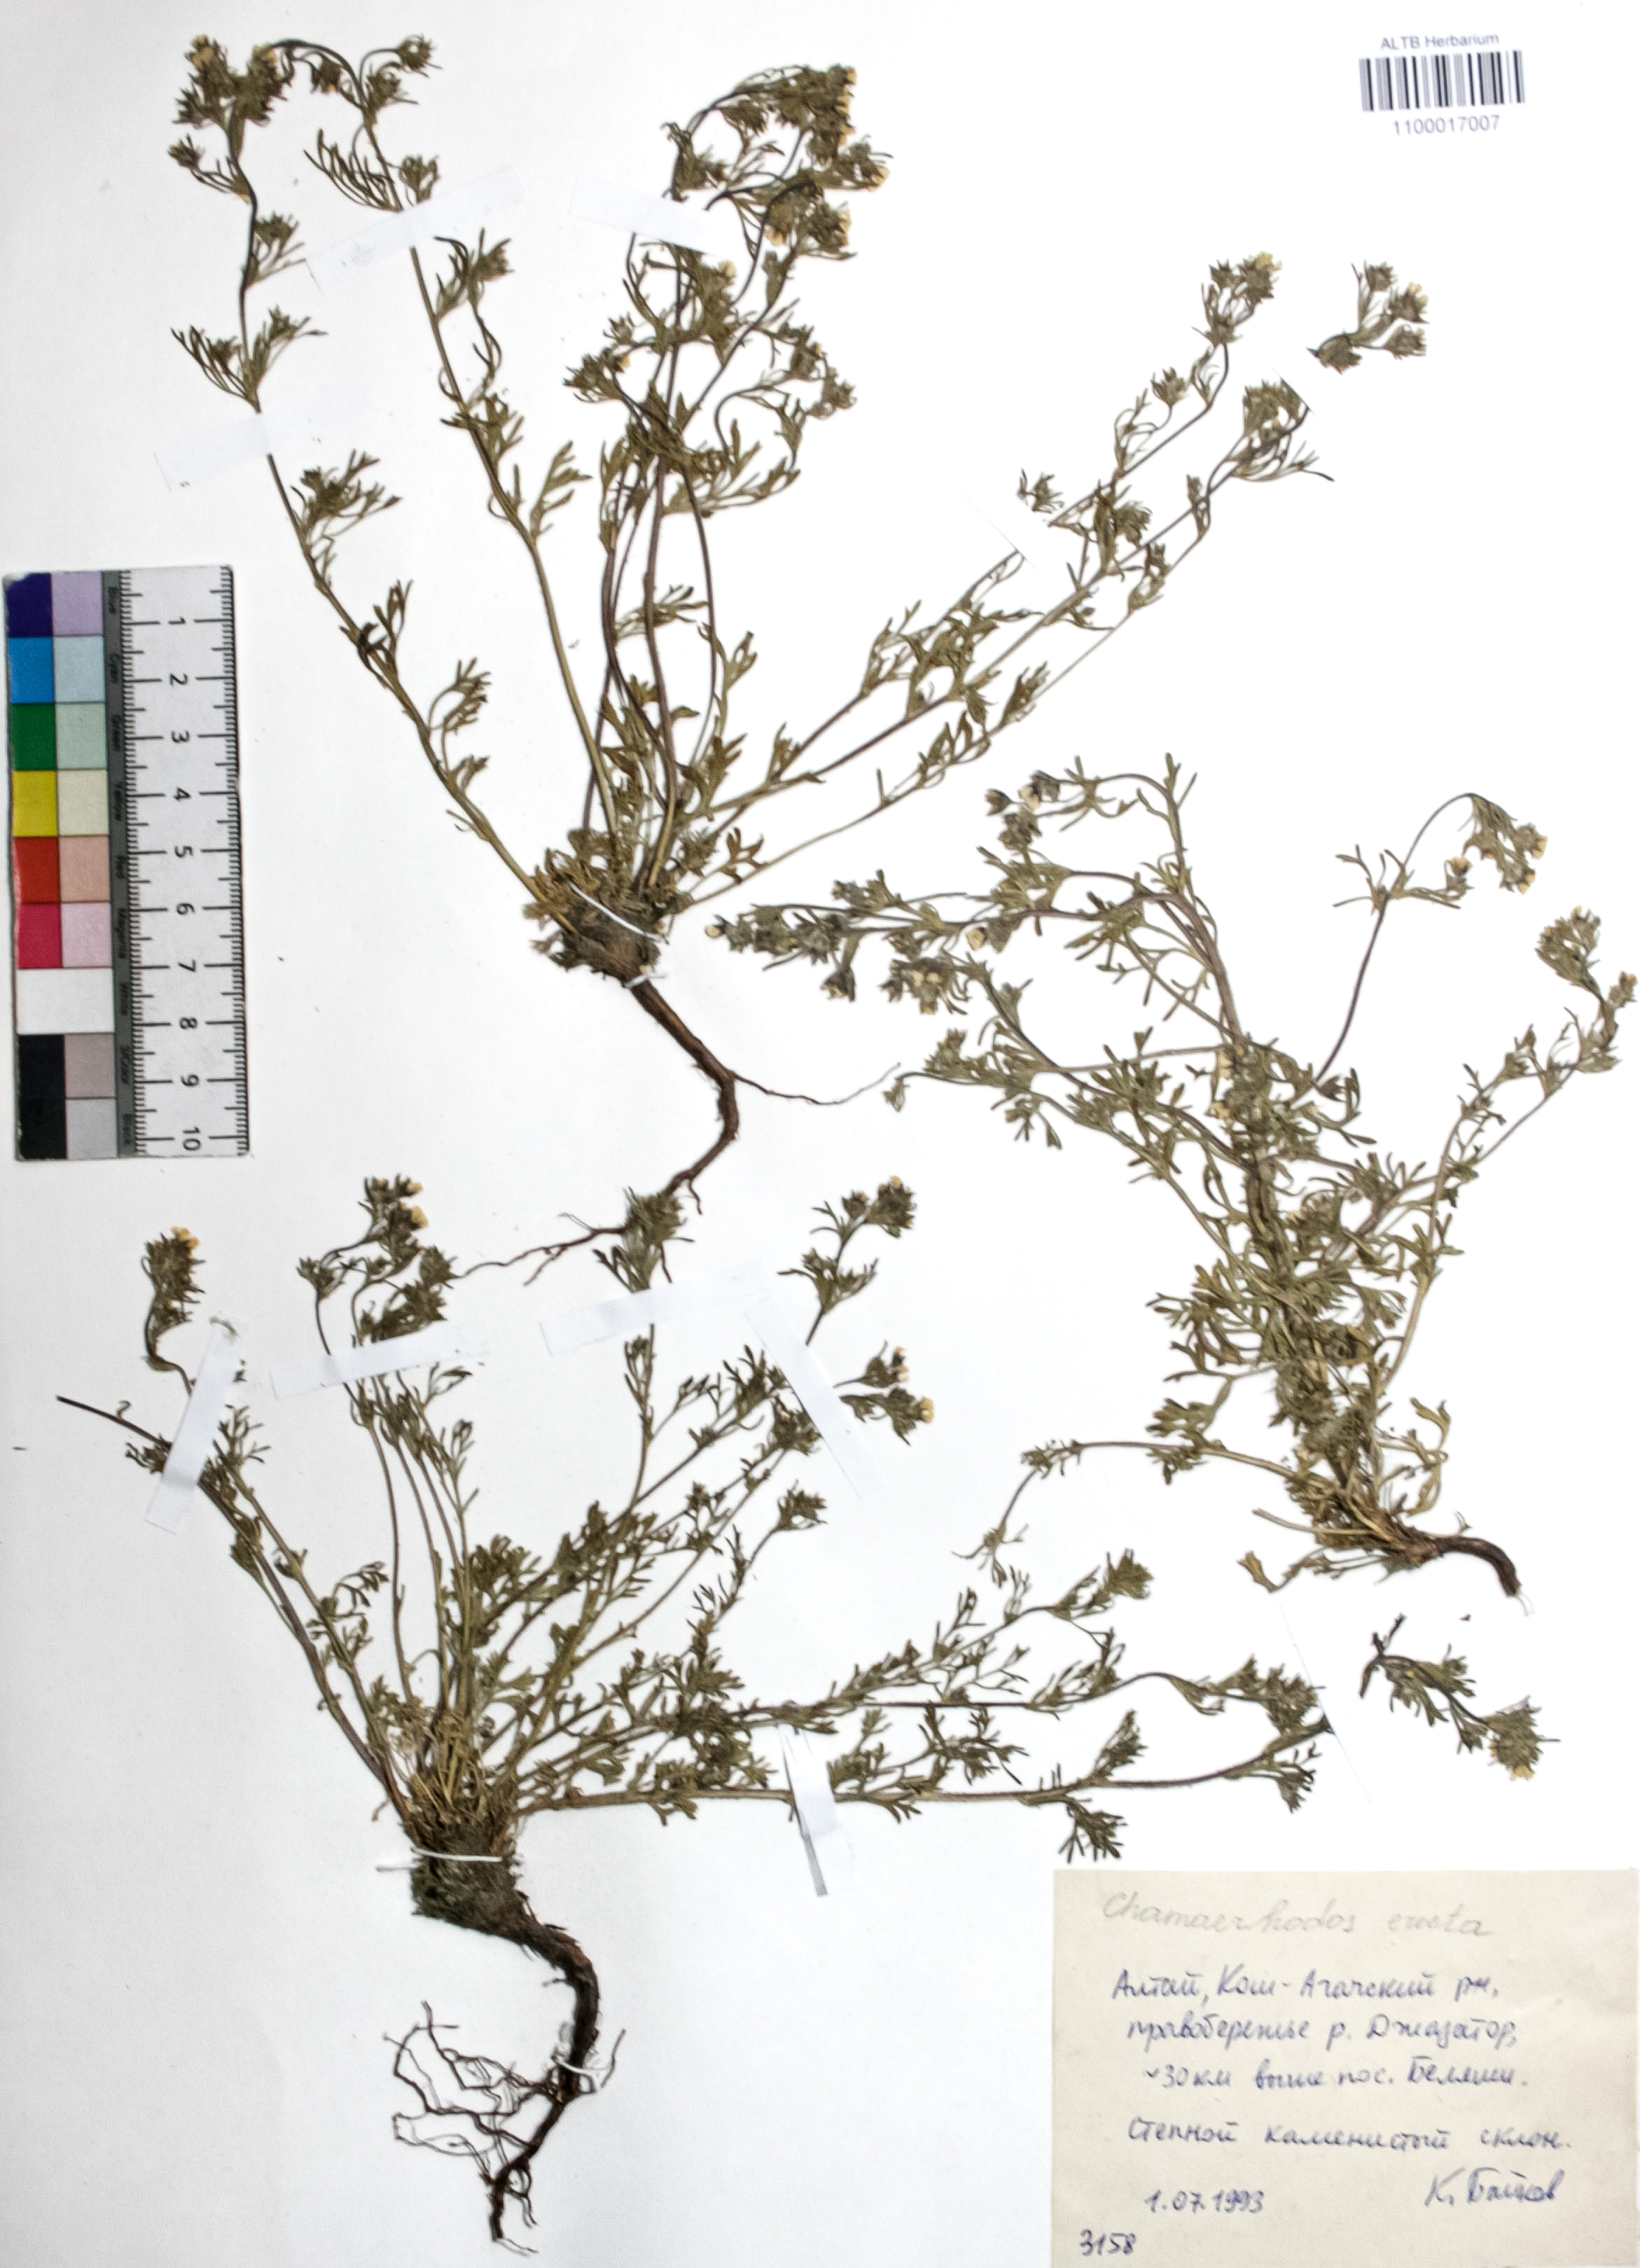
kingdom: Plantae
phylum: Tracheophyta
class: Magnoliopsida
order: Rosales
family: Rosaceae
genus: Chamaerhodos
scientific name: Chamaerhodos erecta
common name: American chamaerhodos
